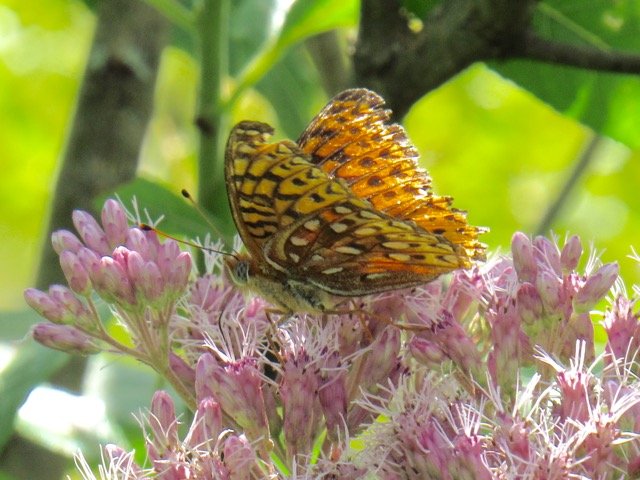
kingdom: Animalia
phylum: Arthropoda
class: Insecta
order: Lepidoptera
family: Nymphalidae
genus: Speyeria
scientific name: Speyeria atlantis
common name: Atlantis Fritillary
